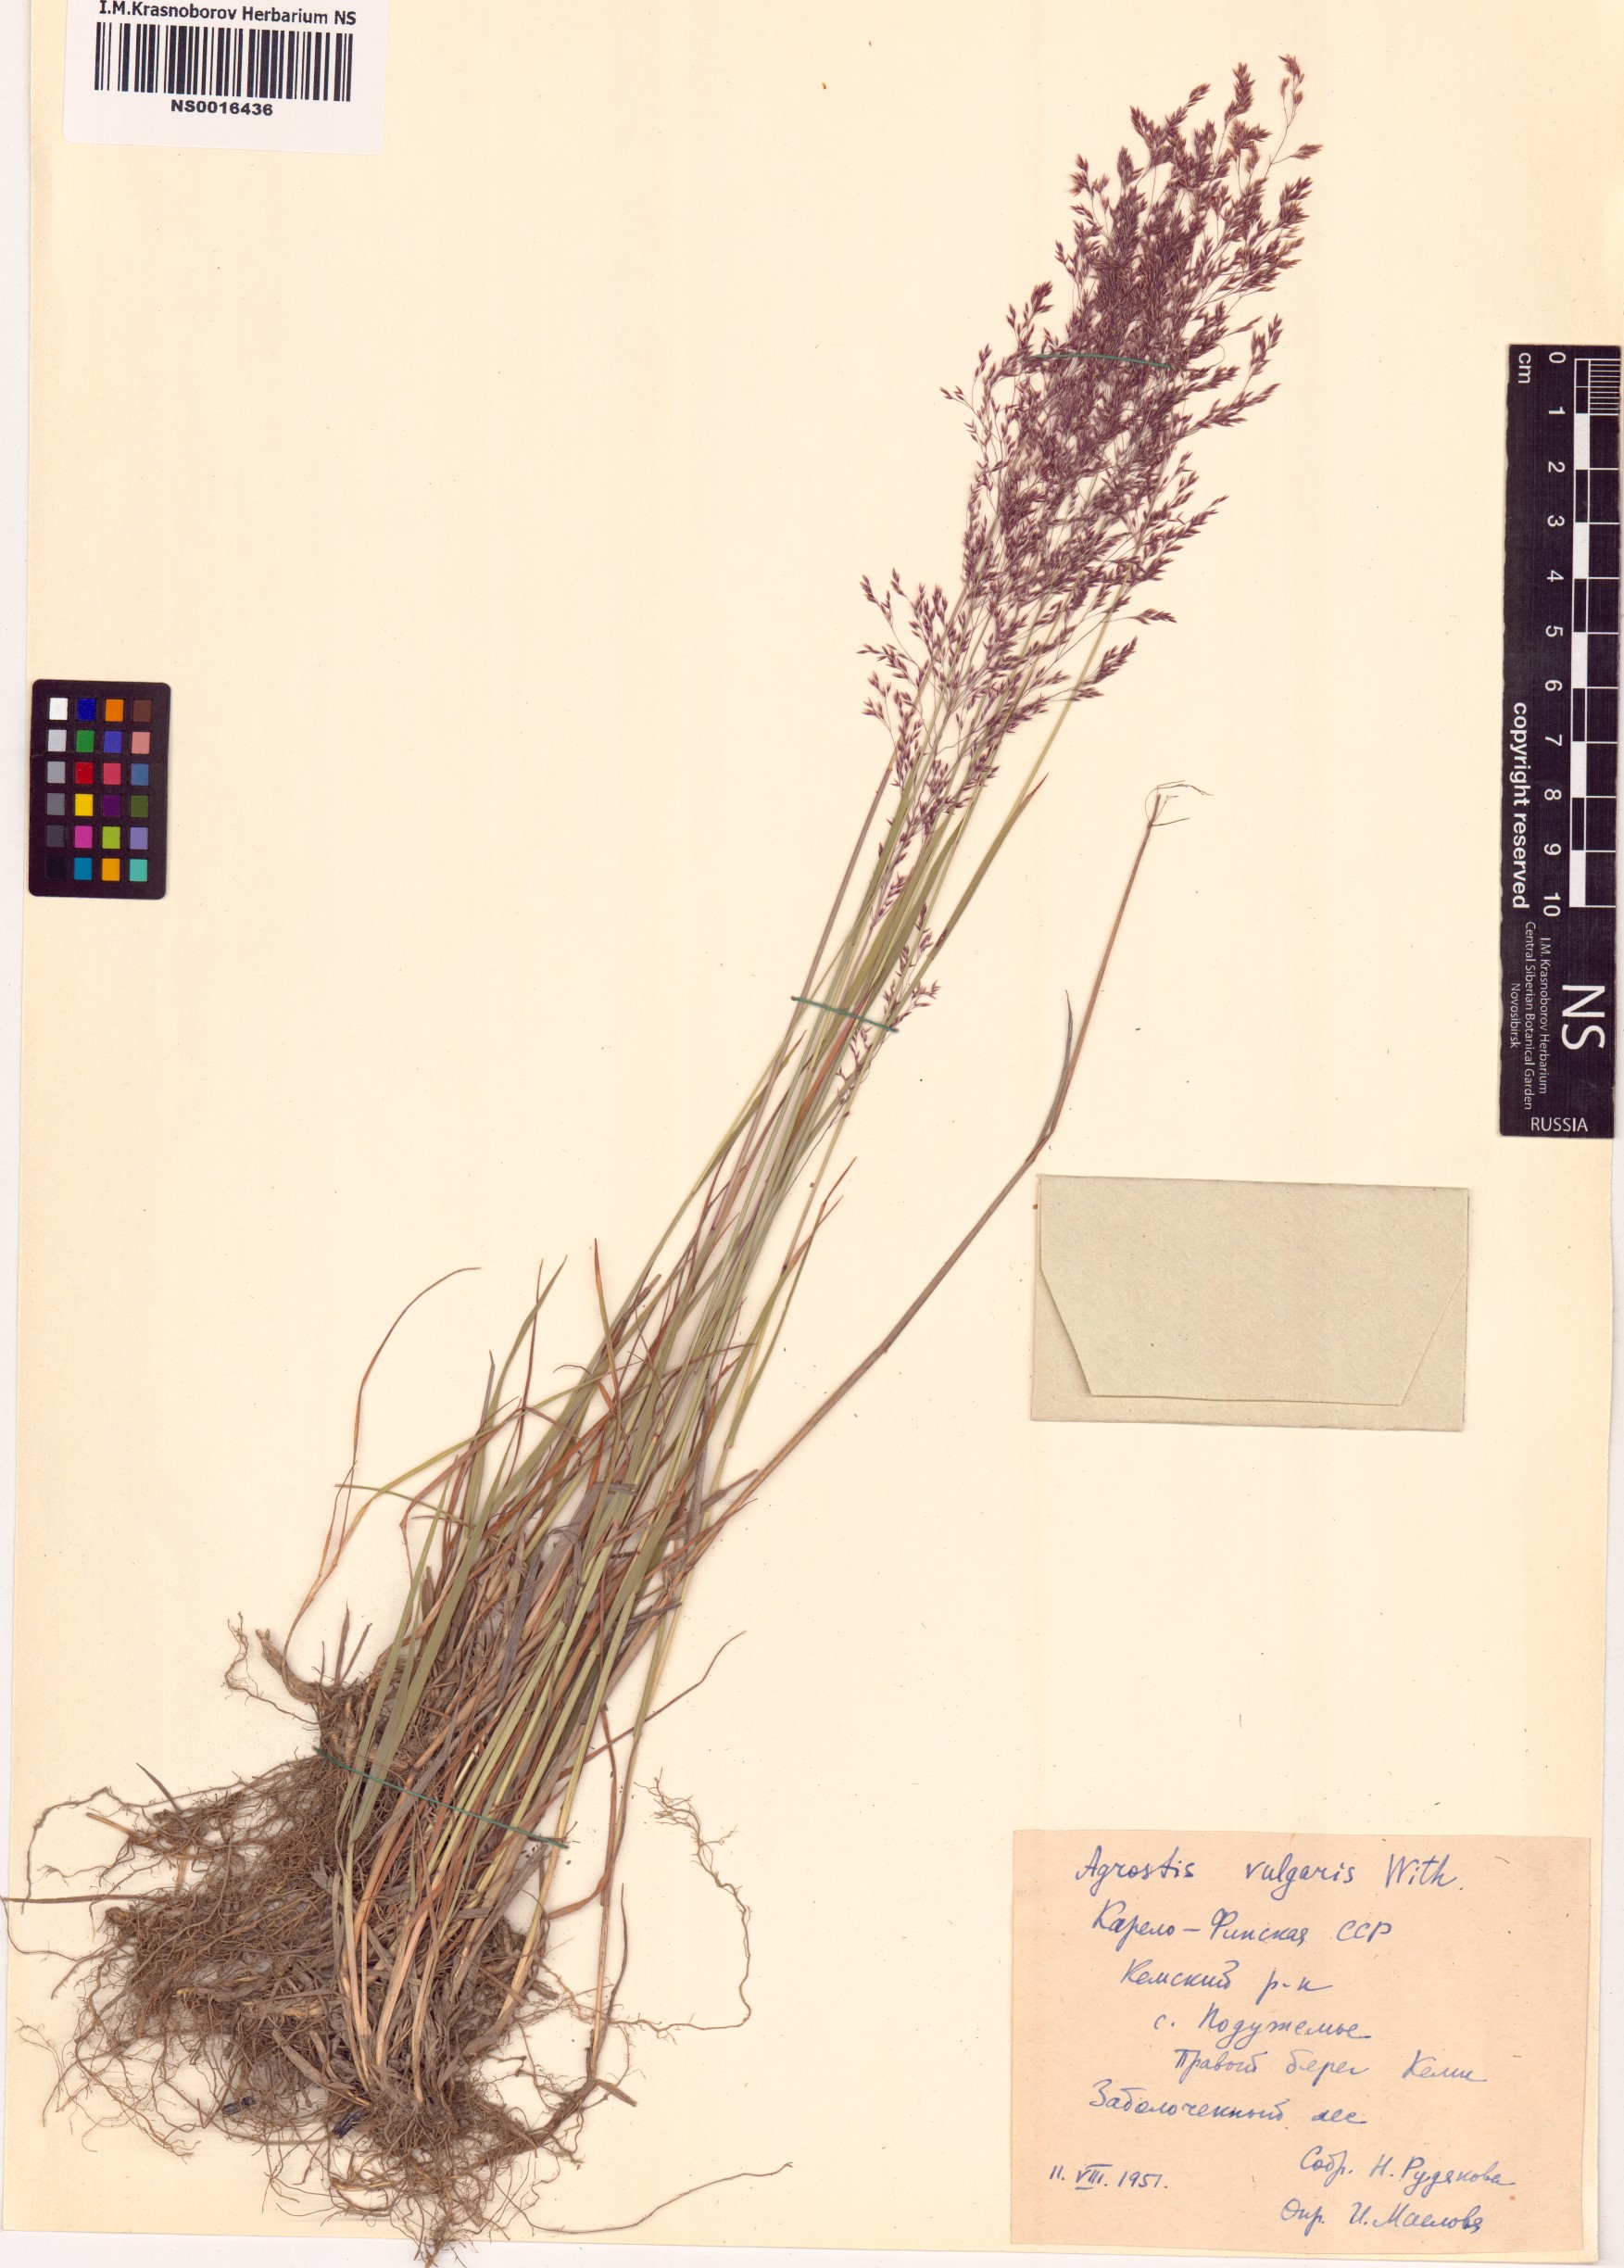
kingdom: Plantae
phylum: Tracheophyta
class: Liliopsida
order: Poales
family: Poaceae
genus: Agrostis
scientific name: Agrostis capillaris
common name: Colonial bentgrass
